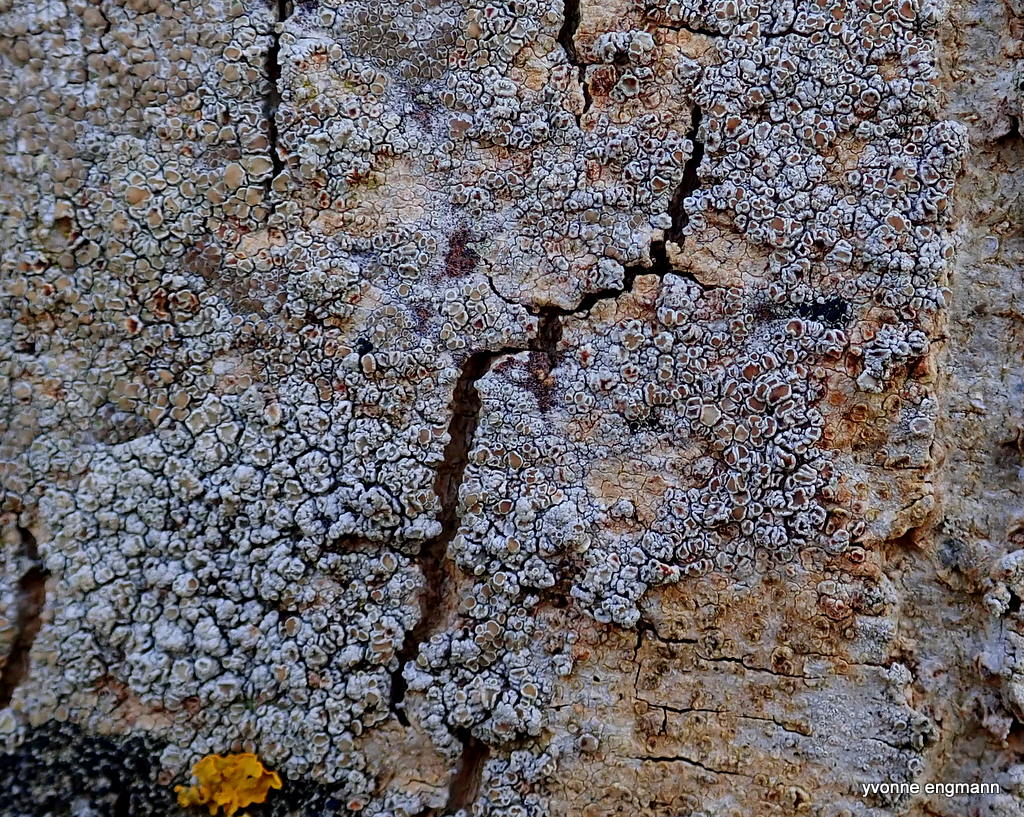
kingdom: Fungi
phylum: Ascomycota
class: Lecanoromycetes
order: Lecanorales
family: Lecanoraceae
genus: Lecanora
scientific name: Lecanora chlarotera
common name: brun kantskivelav
